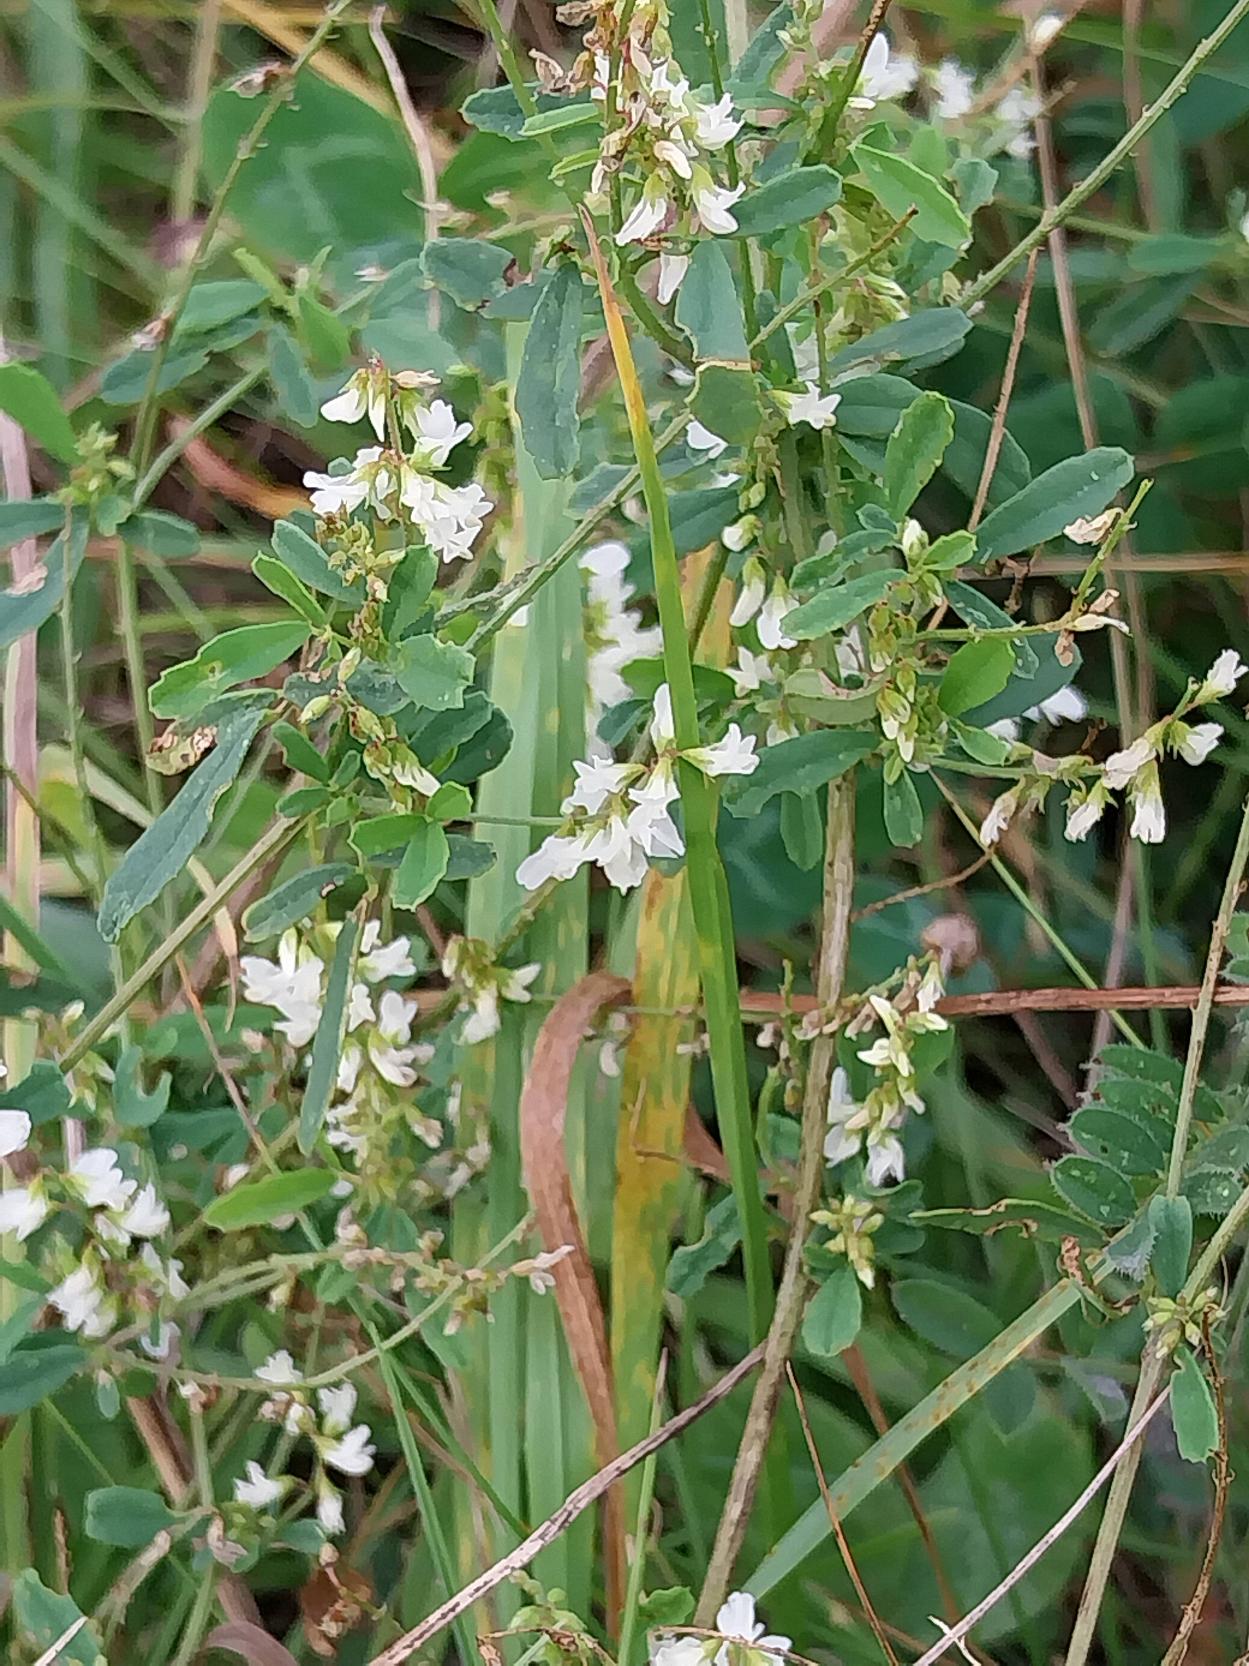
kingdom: Plantae
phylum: Tracheophyta
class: Magnoliopsida
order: Fabales
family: Fabaceae
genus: Melilotus
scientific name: Melilotus albus
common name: Hvid stenkløver
